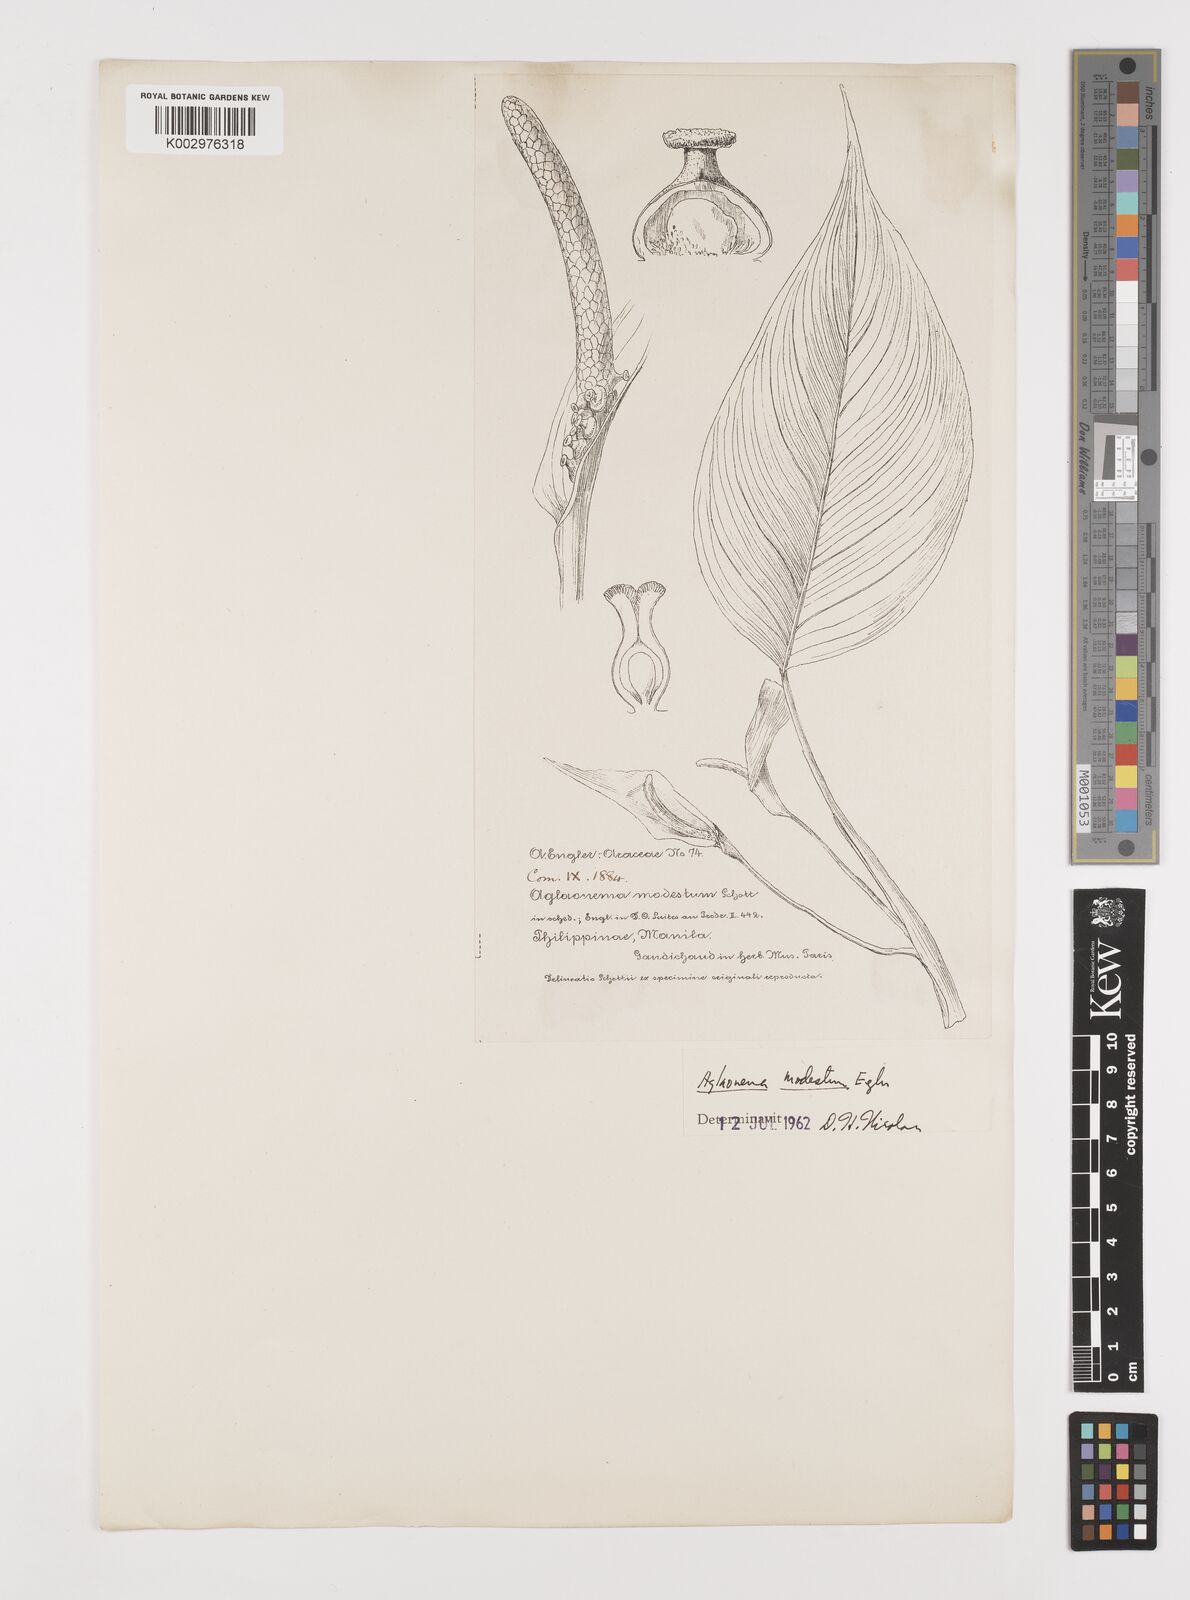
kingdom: Plantae
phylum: Tracheophyta
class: Liliopsida
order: Alismatales
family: Araceae
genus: Aglaonema
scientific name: Aglaonema modestum
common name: Chinese evergreen
